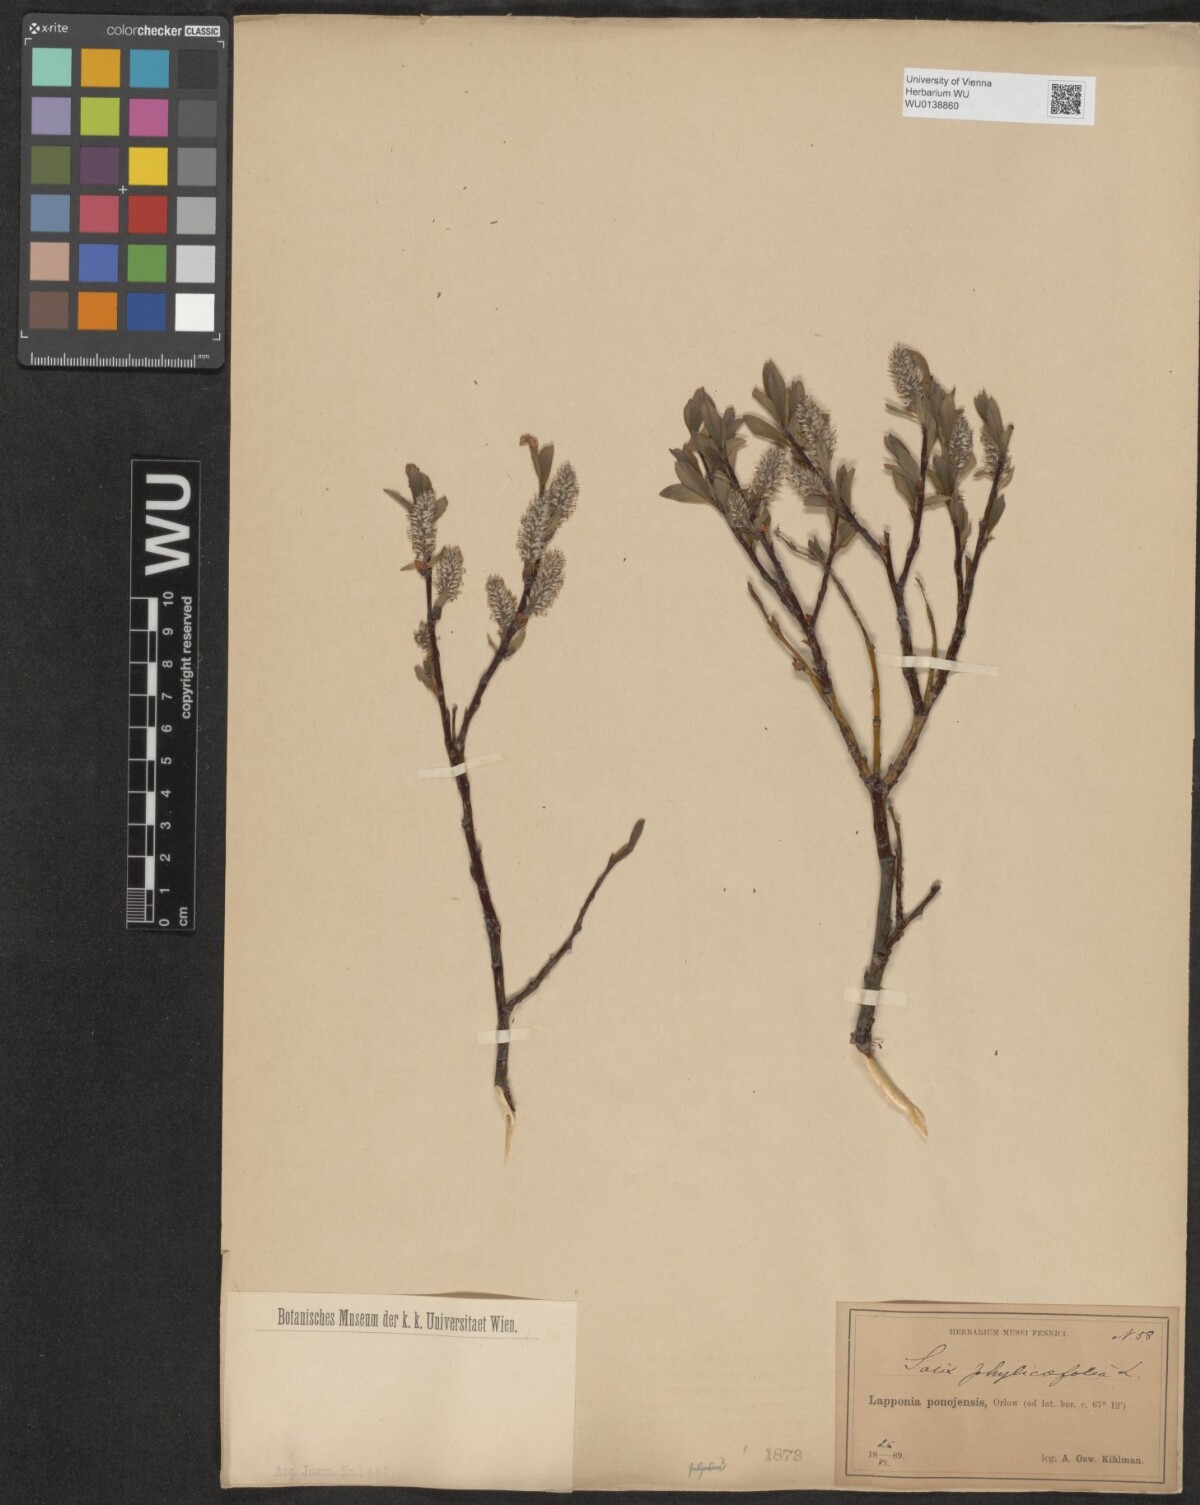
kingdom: Plantae
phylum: Tracheophyta
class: Magnoliopsida
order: Malpighiales
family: Salicaceae
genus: Salix
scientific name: Salix phylicifolia
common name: Tea-leaved willow
